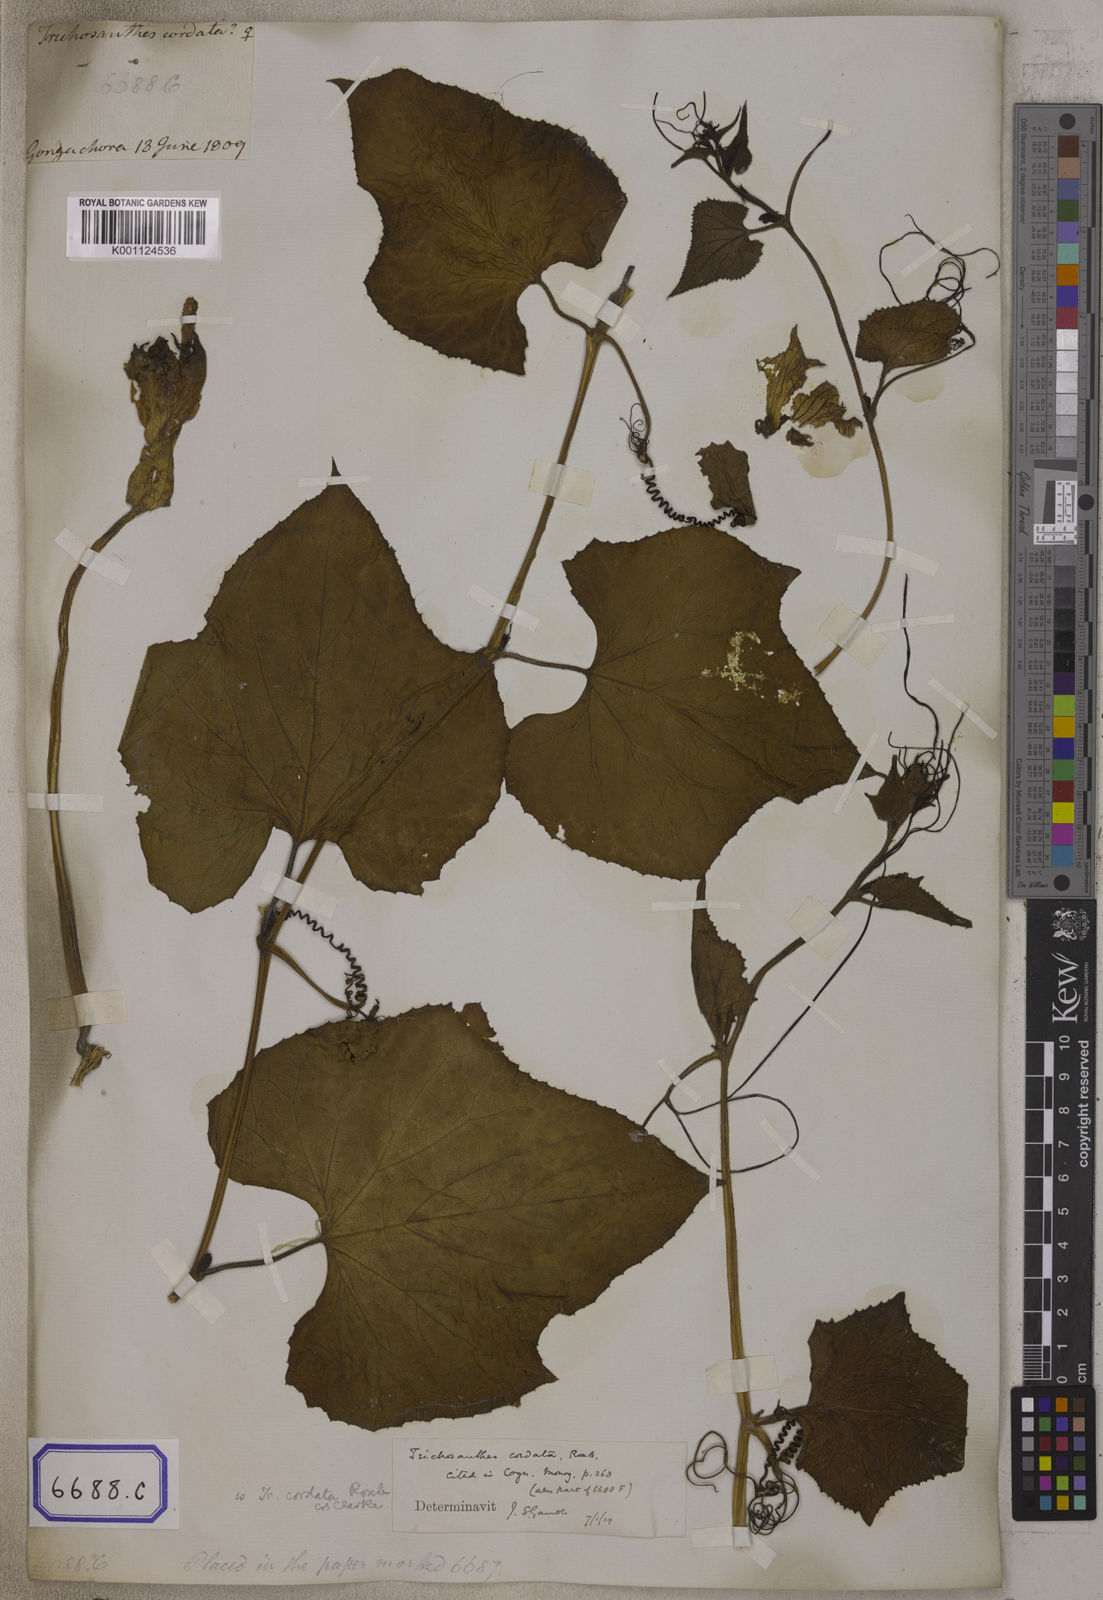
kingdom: Plantae
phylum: Tracheophyta
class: Magnoliopsida
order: Cucurbitales
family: Cucurbitaceae
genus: Trichosanthes
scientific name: Trichosanthes
